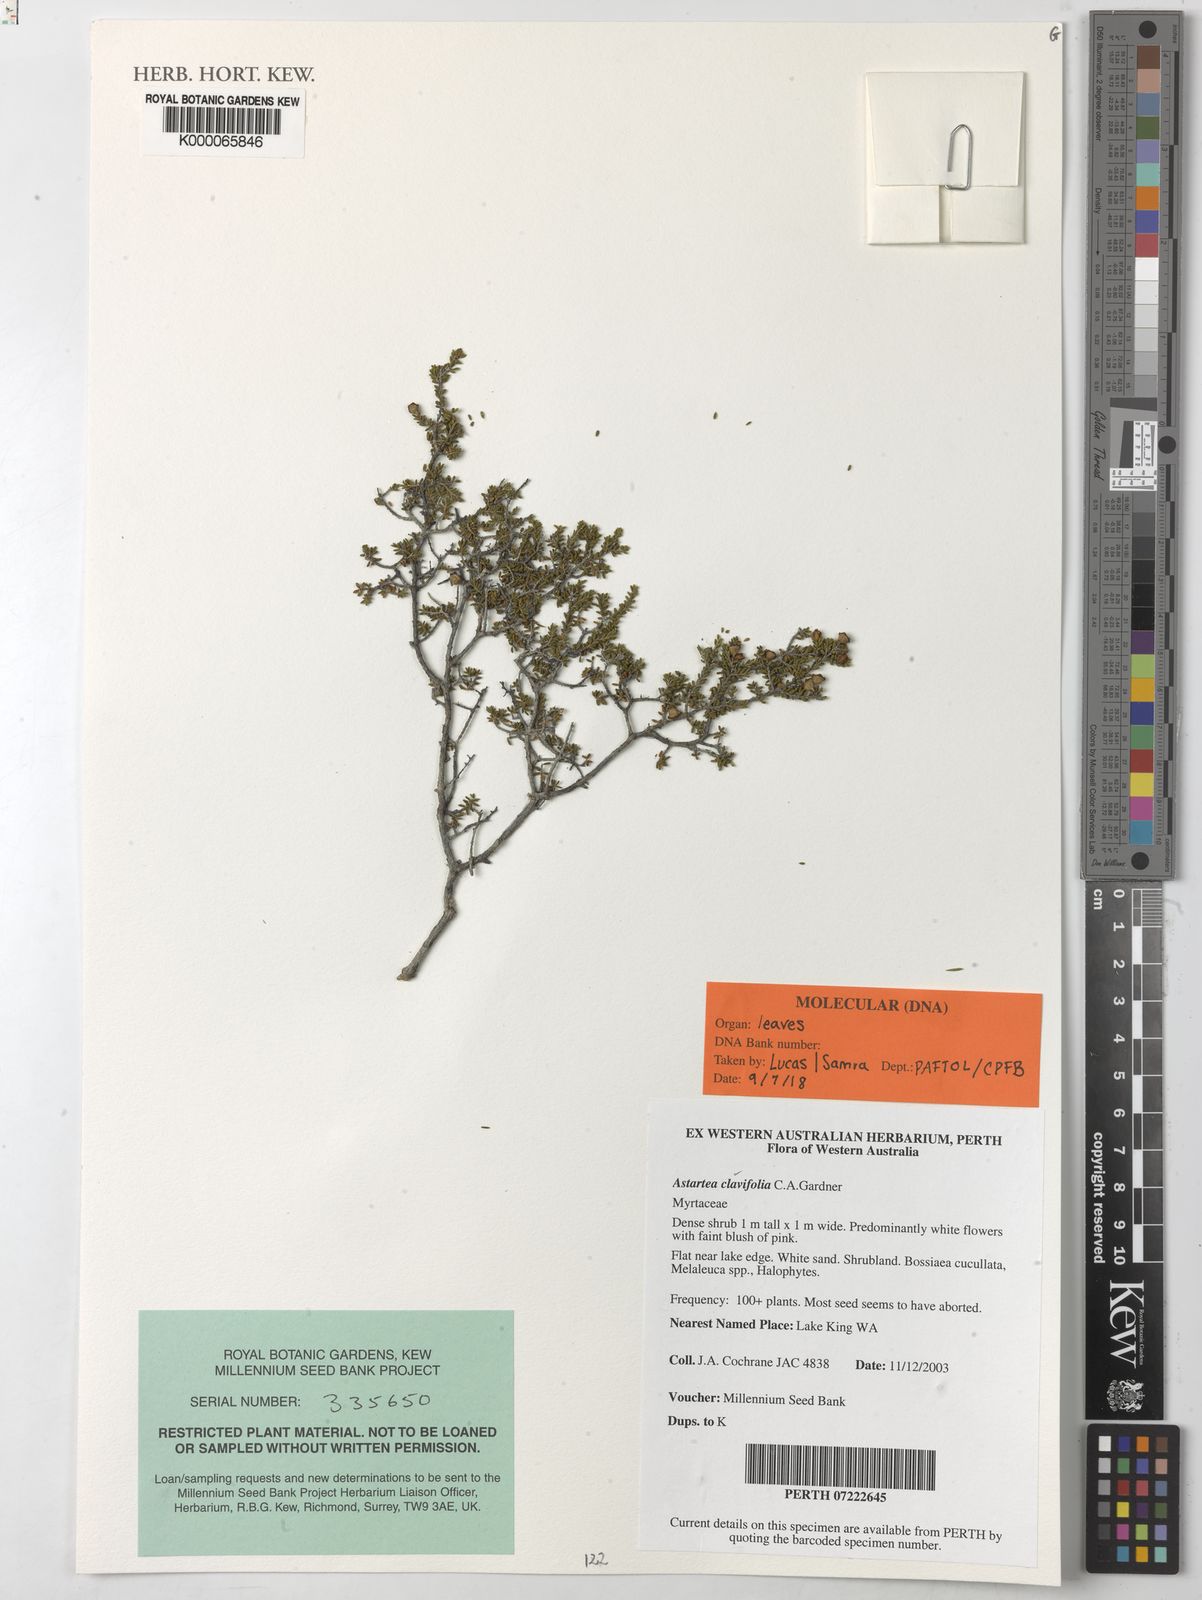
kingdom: Plantae
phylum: Tracheophyta
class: Magnoliopsida
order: Myrtales
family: Myrtaceae
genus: Astartea
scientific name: Astartea
